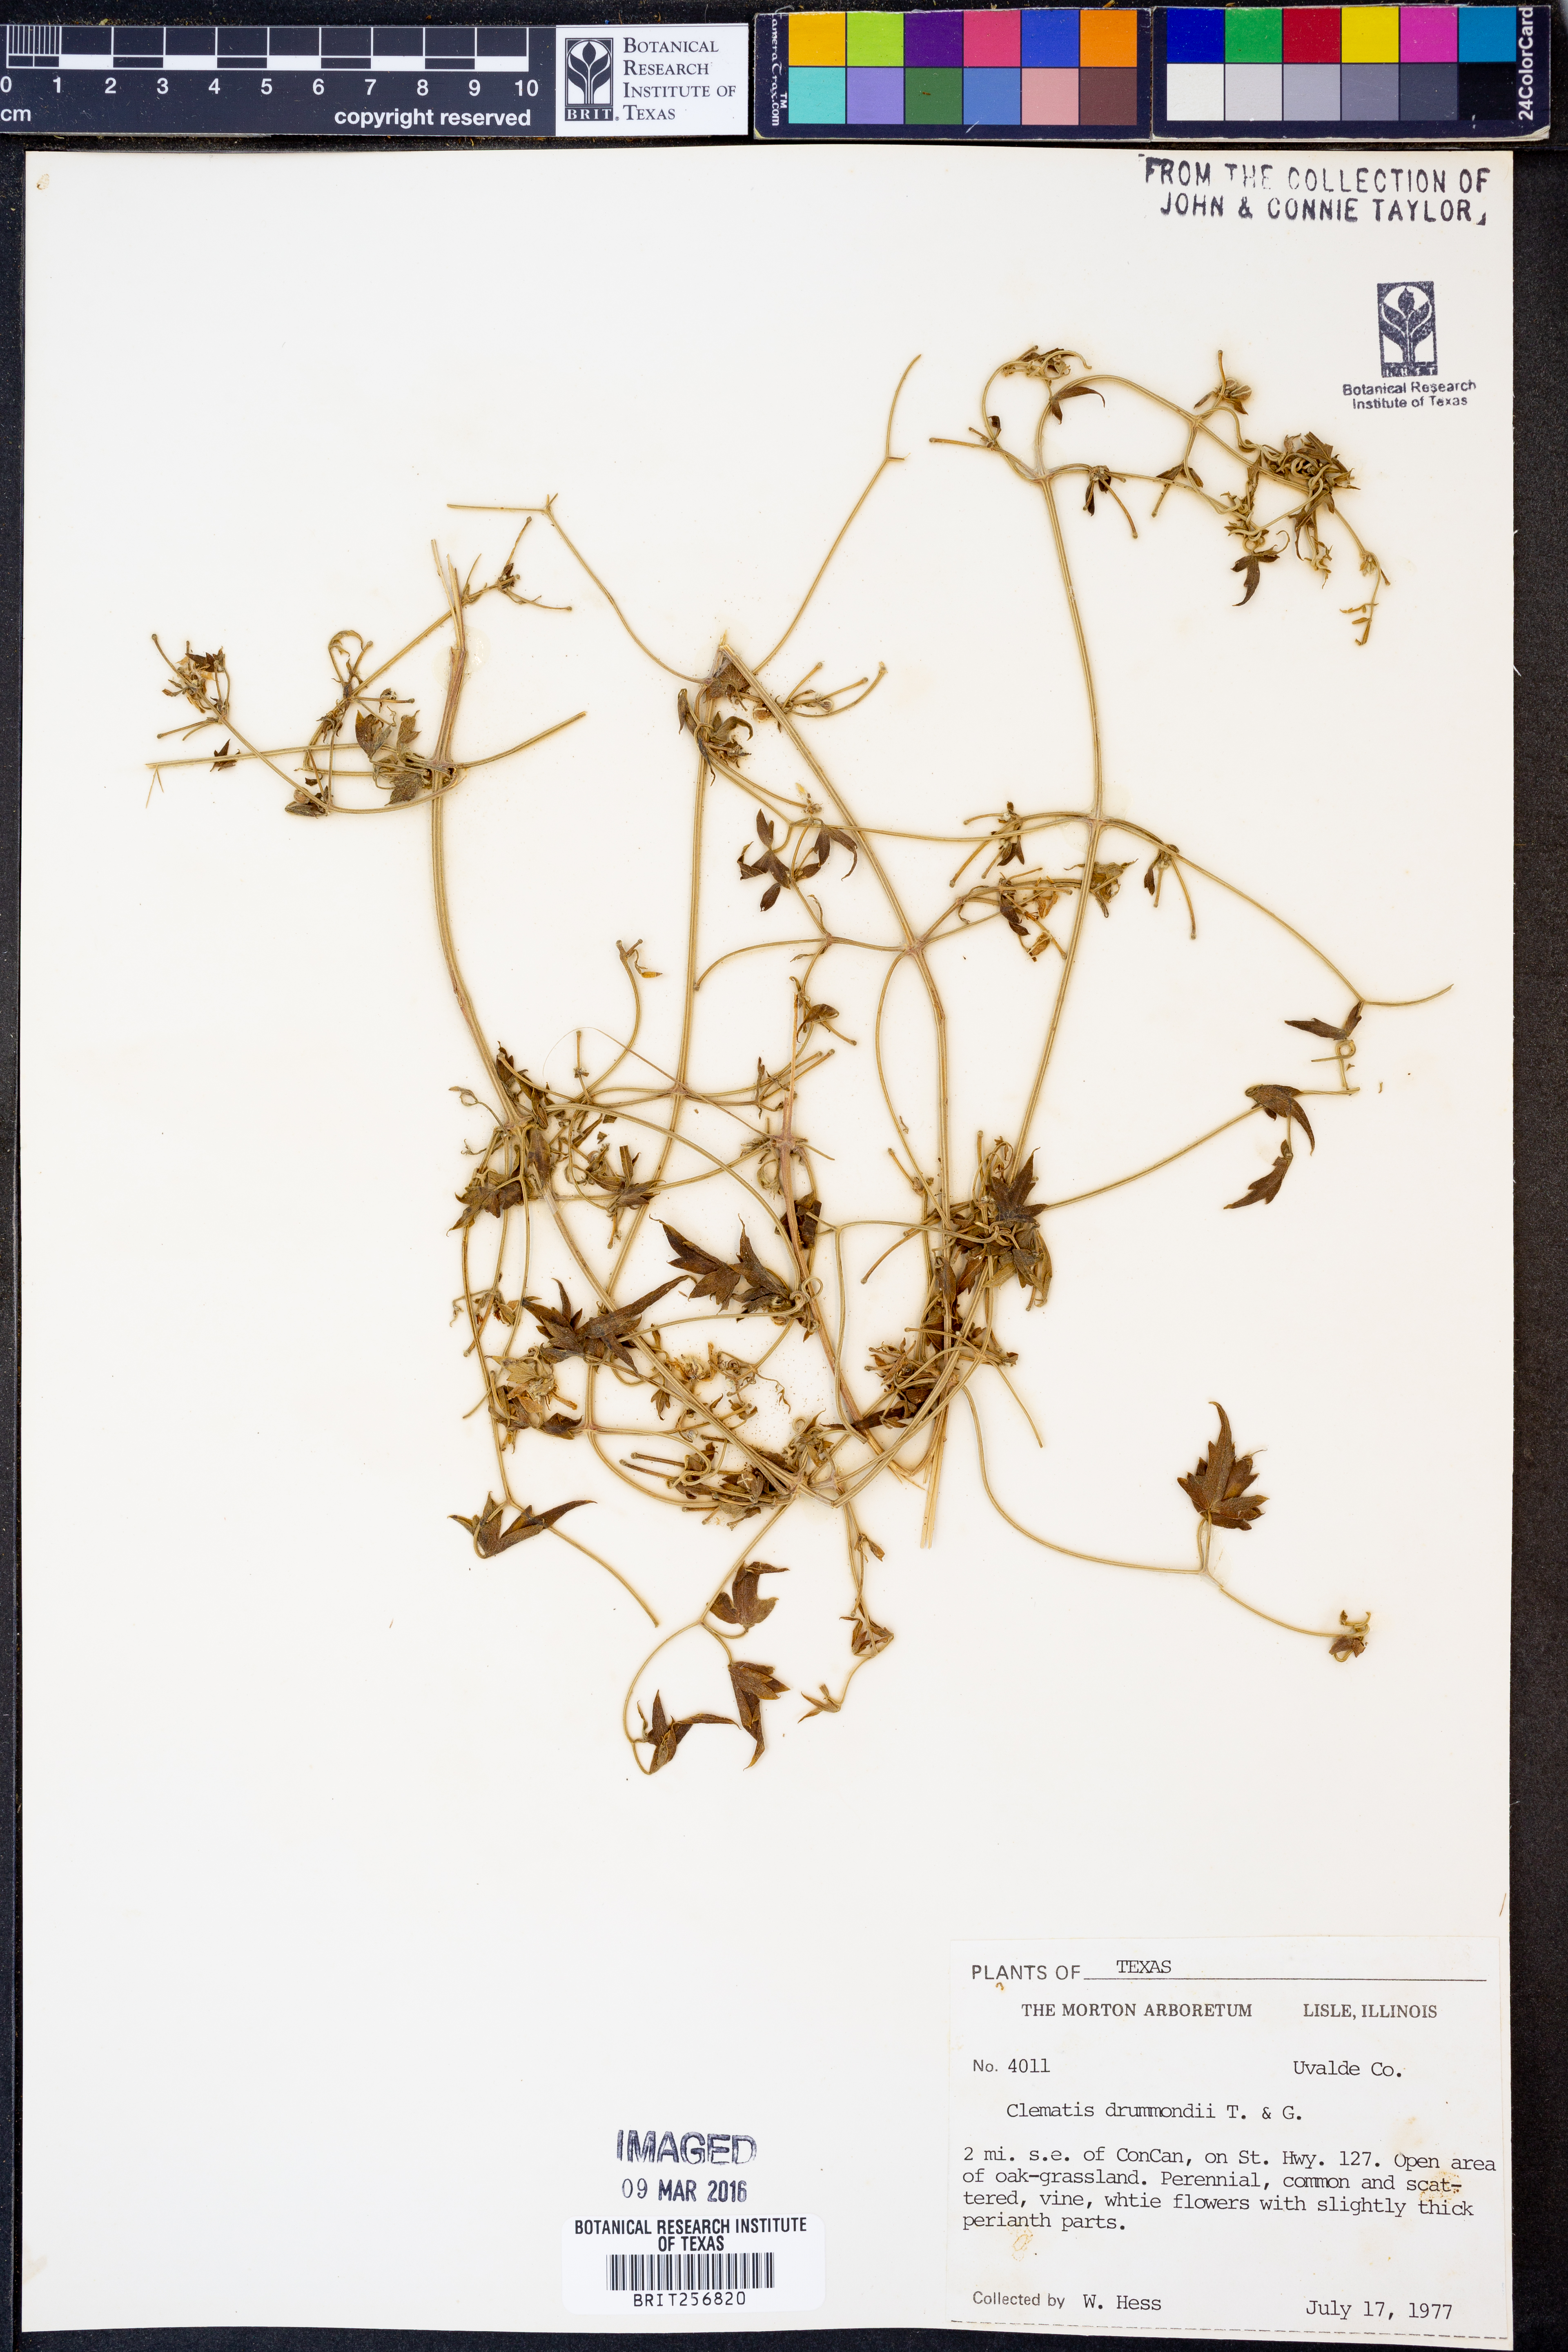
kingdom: Plantae
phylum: Tracheophyta
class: Magnoliopsida
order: Ranunculales
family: Ranunculaceae
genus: Clematis
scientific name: Clematis drummondii
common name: Texas virgin's bower
